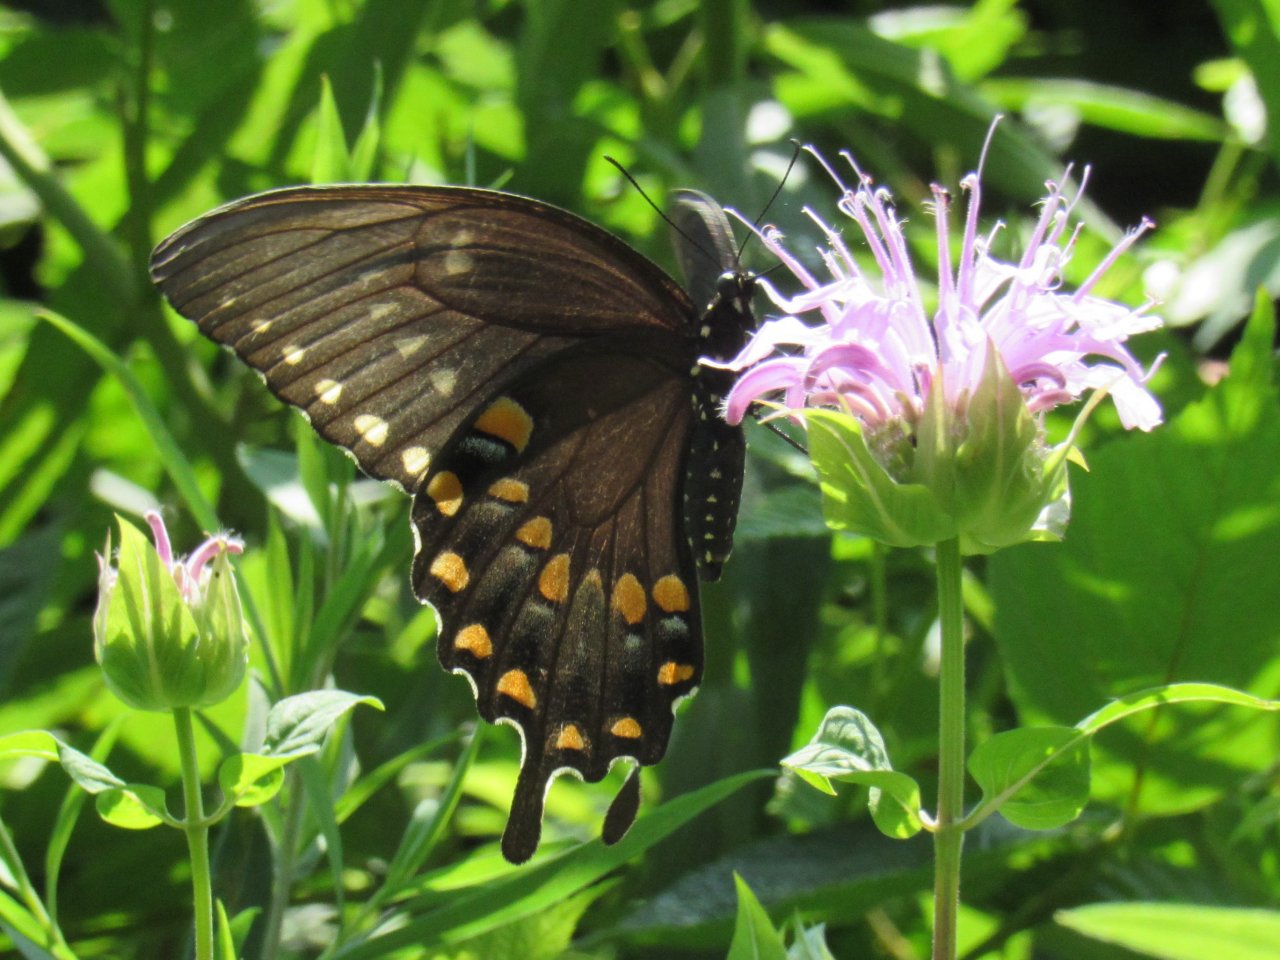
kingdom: Animalia
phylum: Arthropoda
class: Insecta
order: Lepidoptera
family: Papilionidae
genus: Pterourus
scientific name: Pterourus troilus
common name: Spicebush Swallowtail
